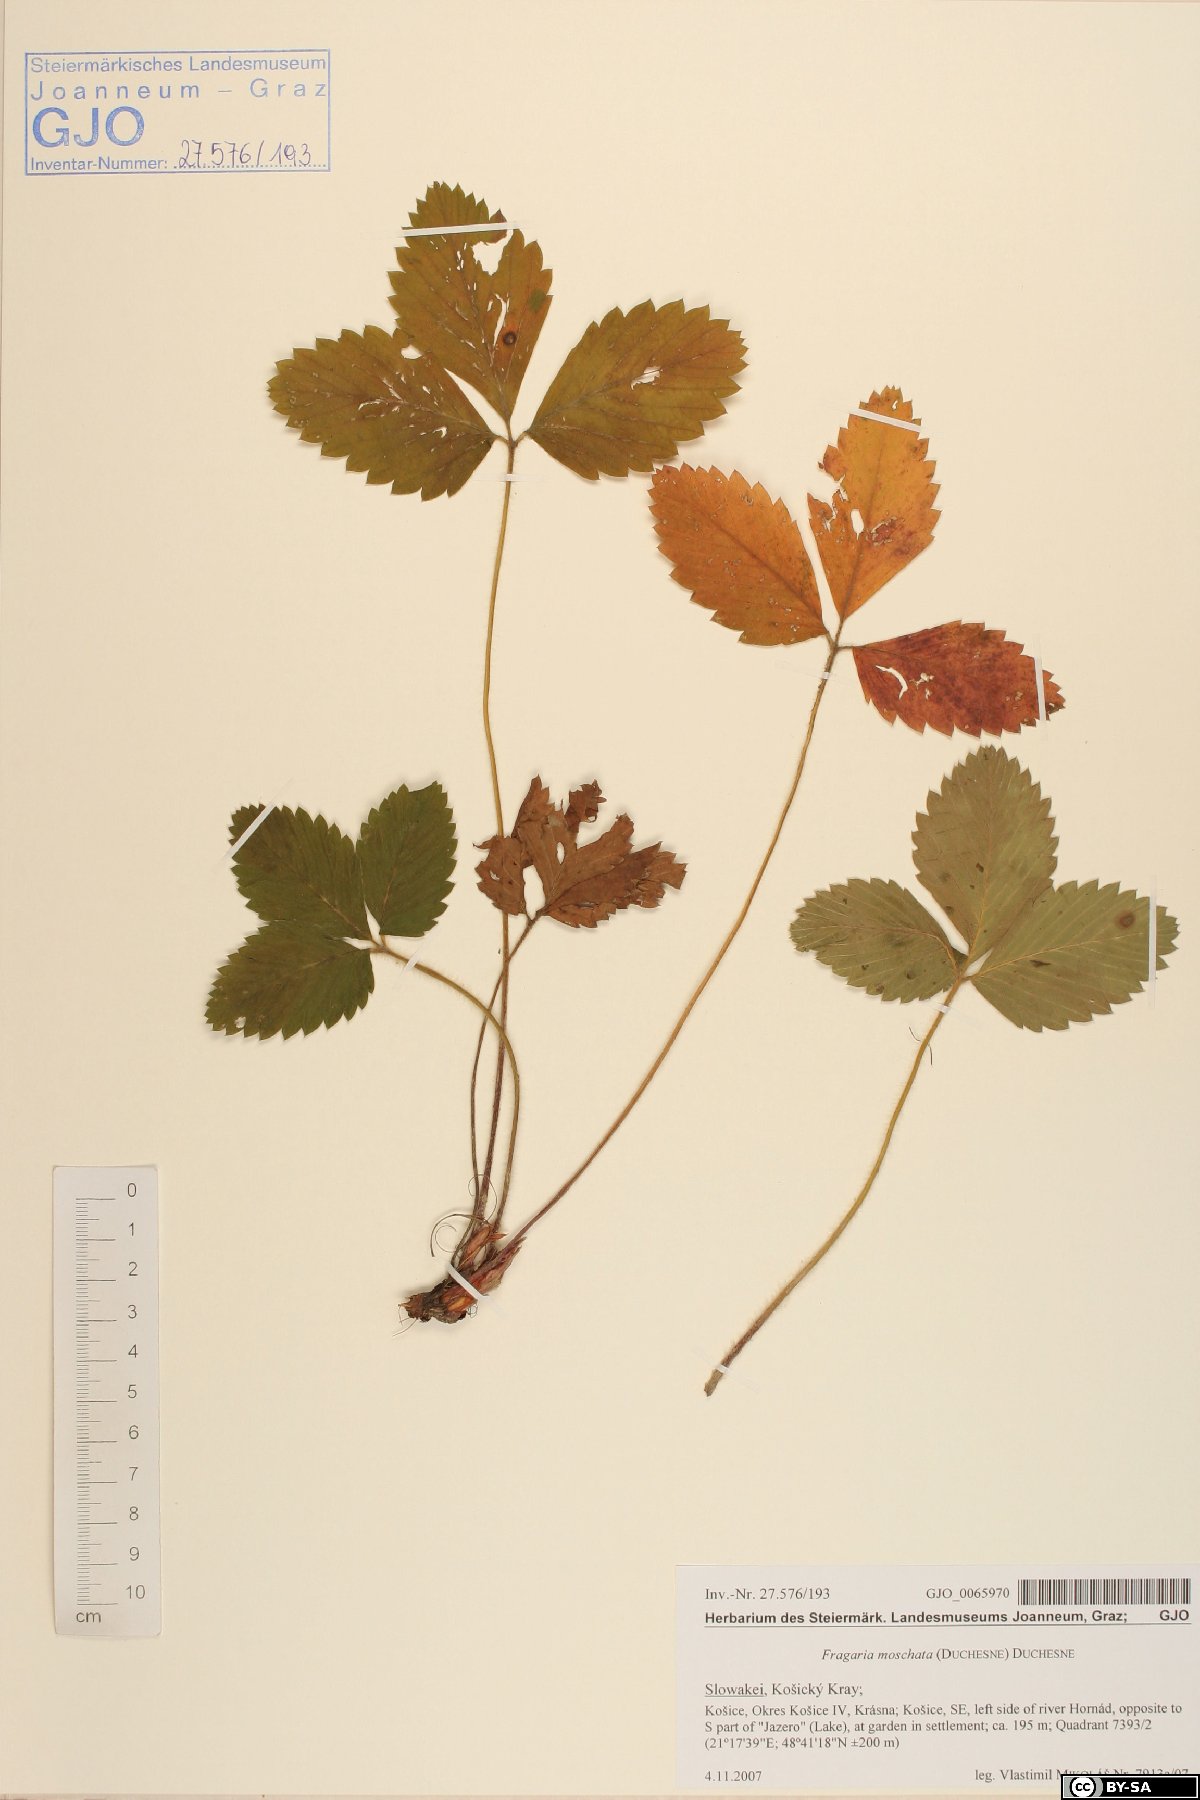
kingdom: Plantae
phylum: Tracheophyta
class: Magnoliopsida
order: Rosales
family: Rosaceae
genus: Fragaria
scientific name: Fragaria moschata
